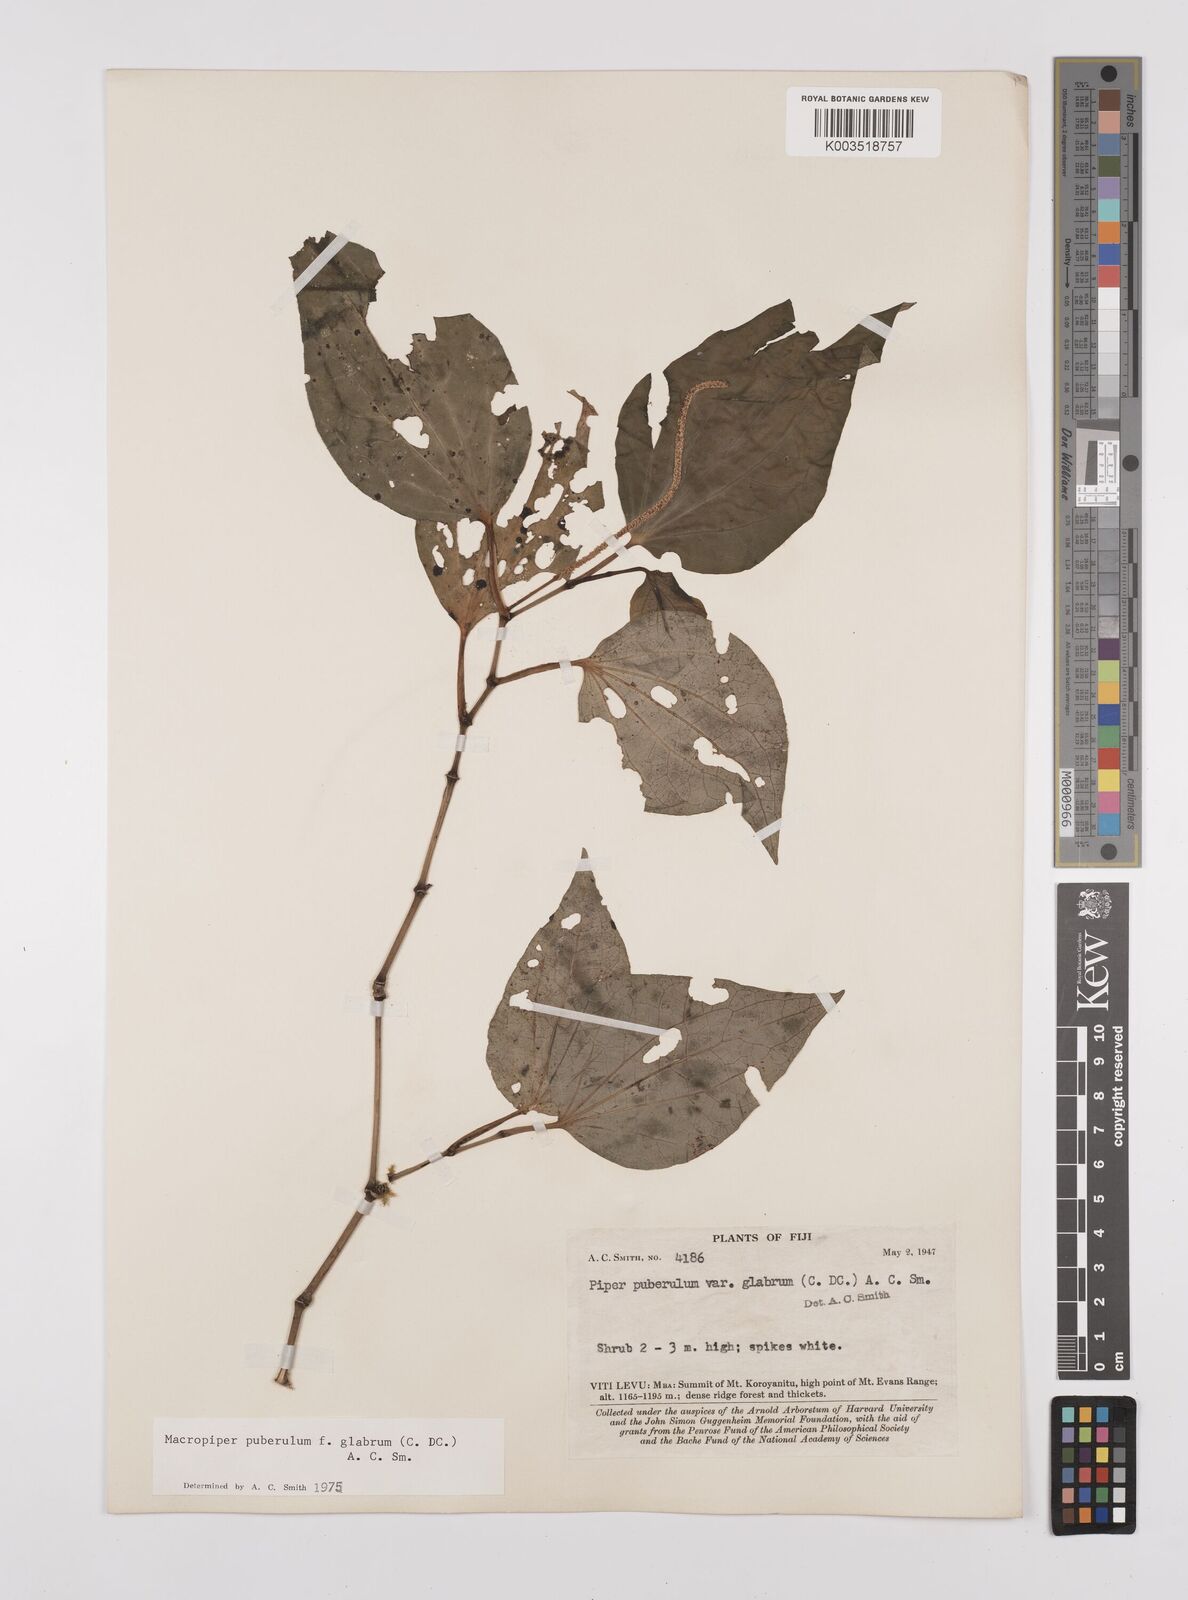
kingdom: Plantae
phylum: Tracheophyta
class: Magnoliopsida
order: Piperales
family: Piperaceae
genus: Macropiper
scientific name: Macropiper puberulum
